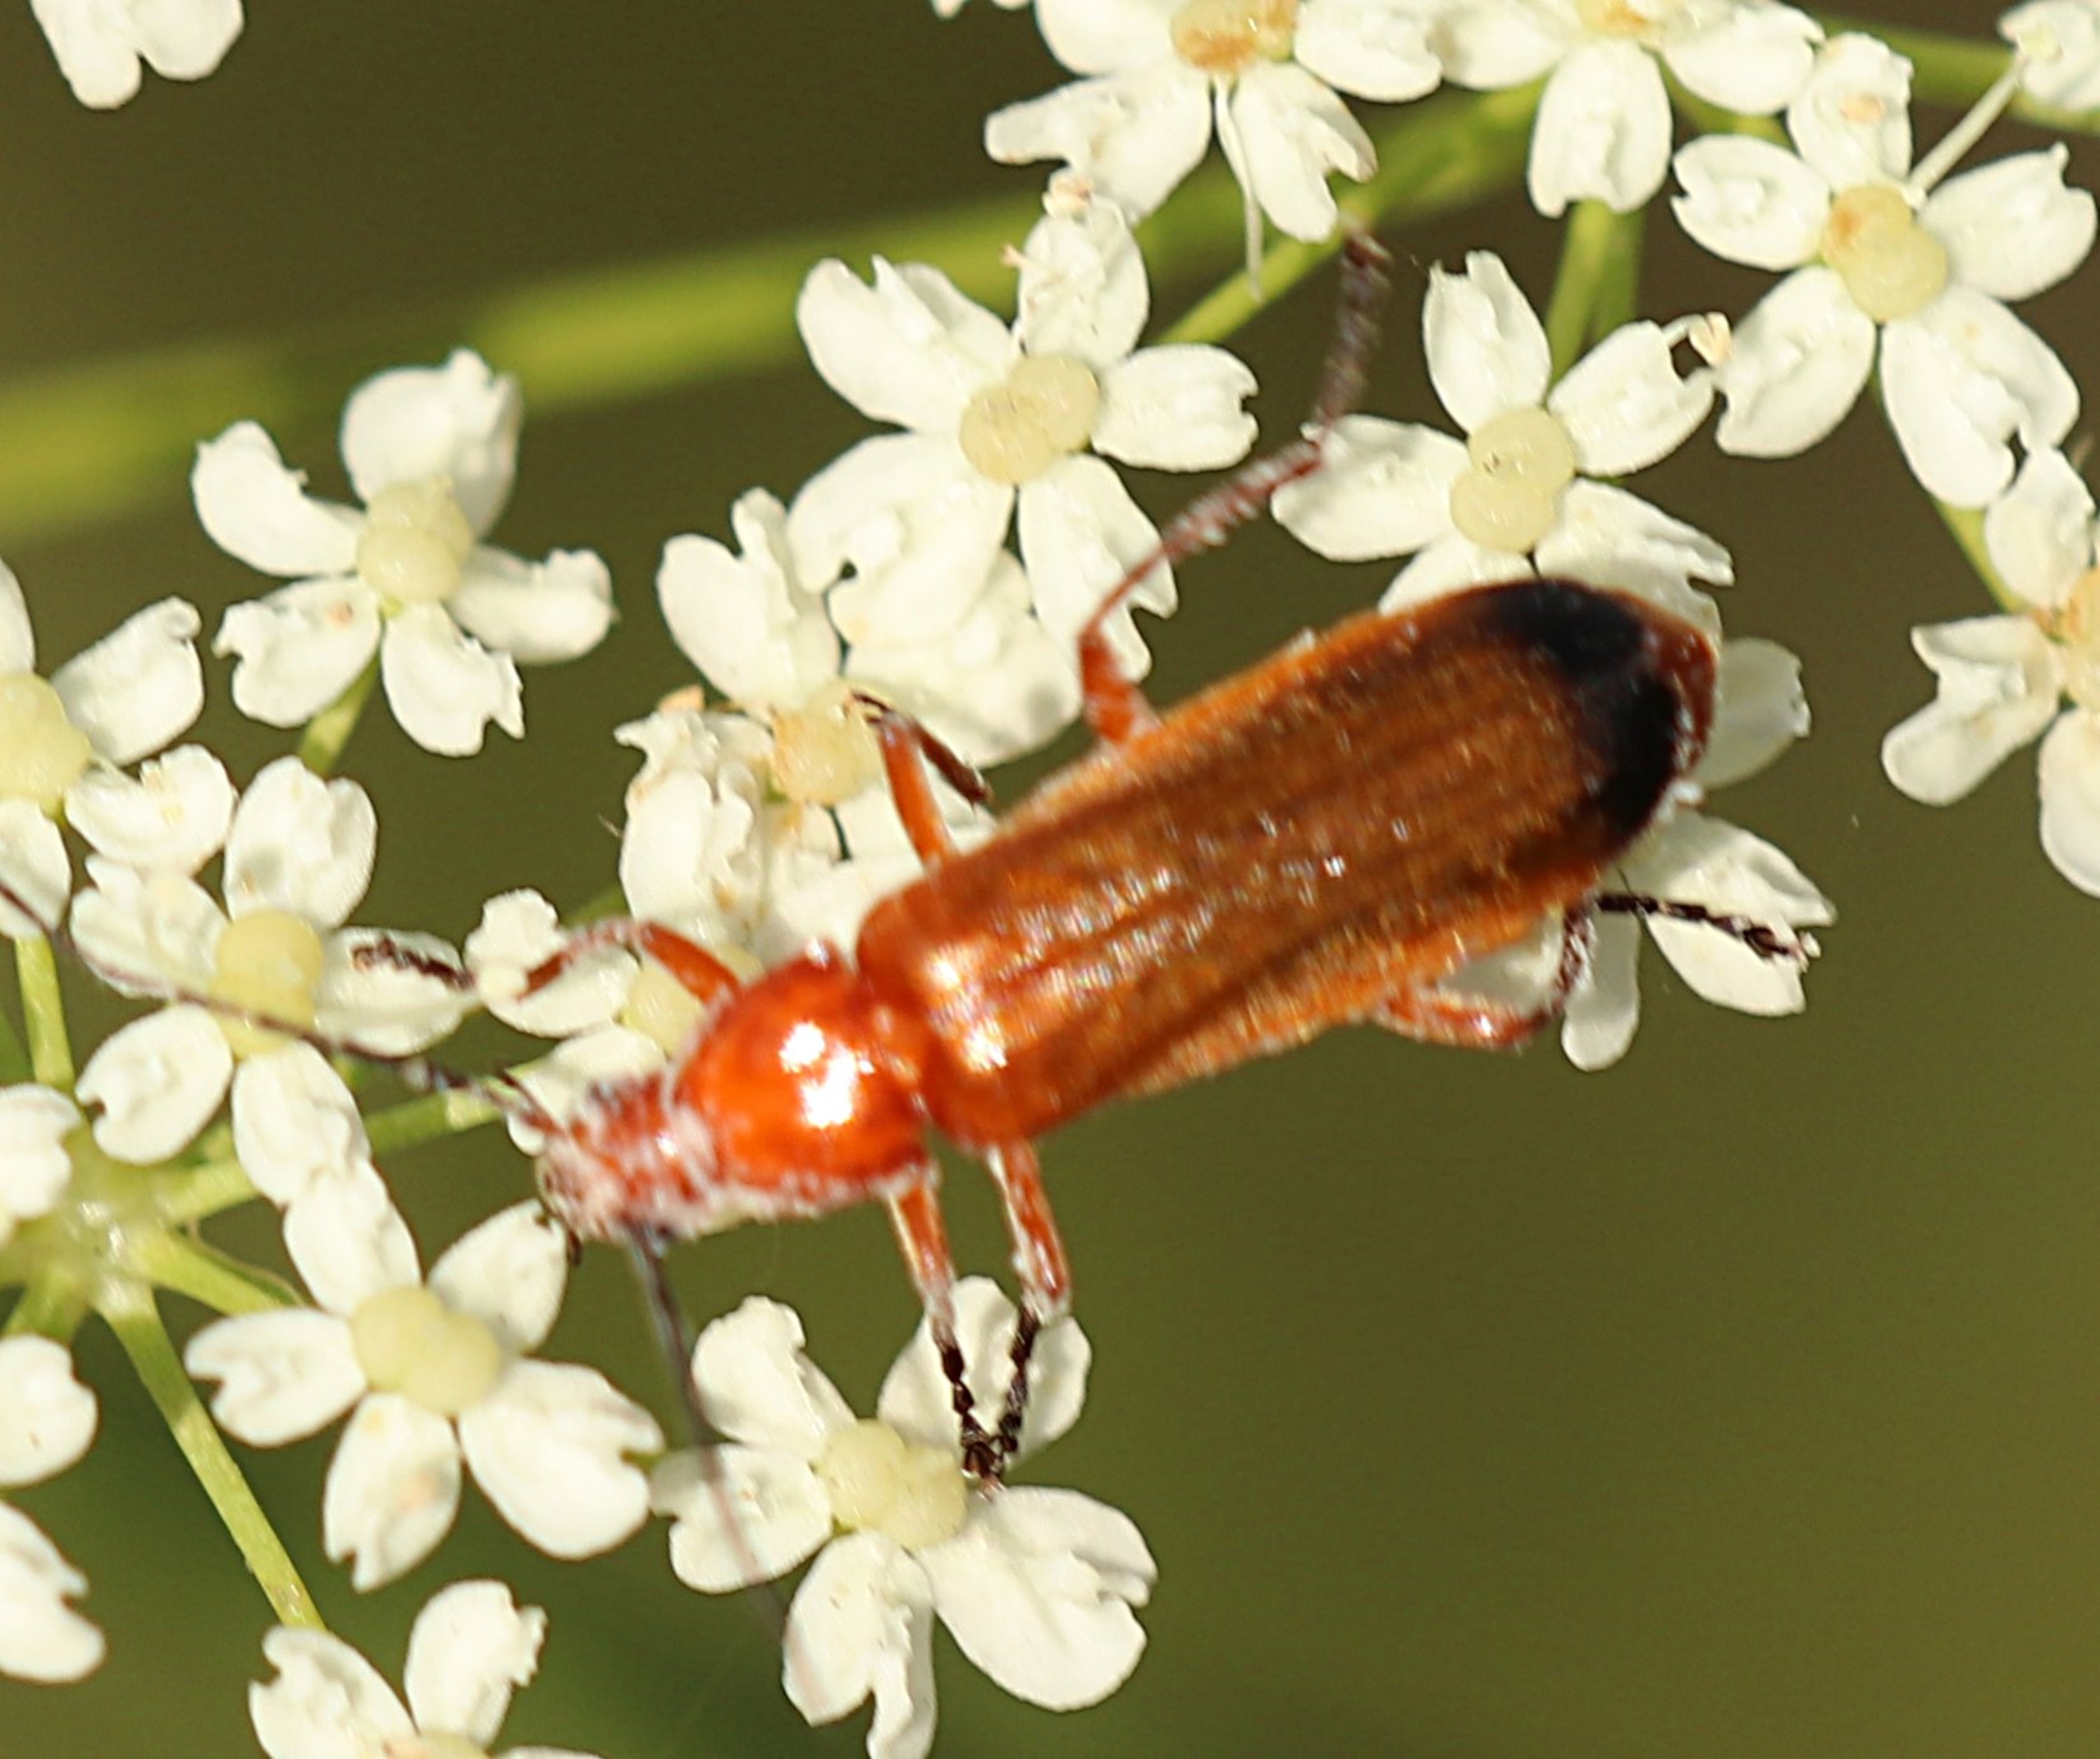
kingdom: Animalia
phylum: Arthropoda
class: Insecta
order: Coleoptera
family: Cantharidae
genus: Rhagonycha
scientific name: Rhagonycha fulva
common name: Præstebille
